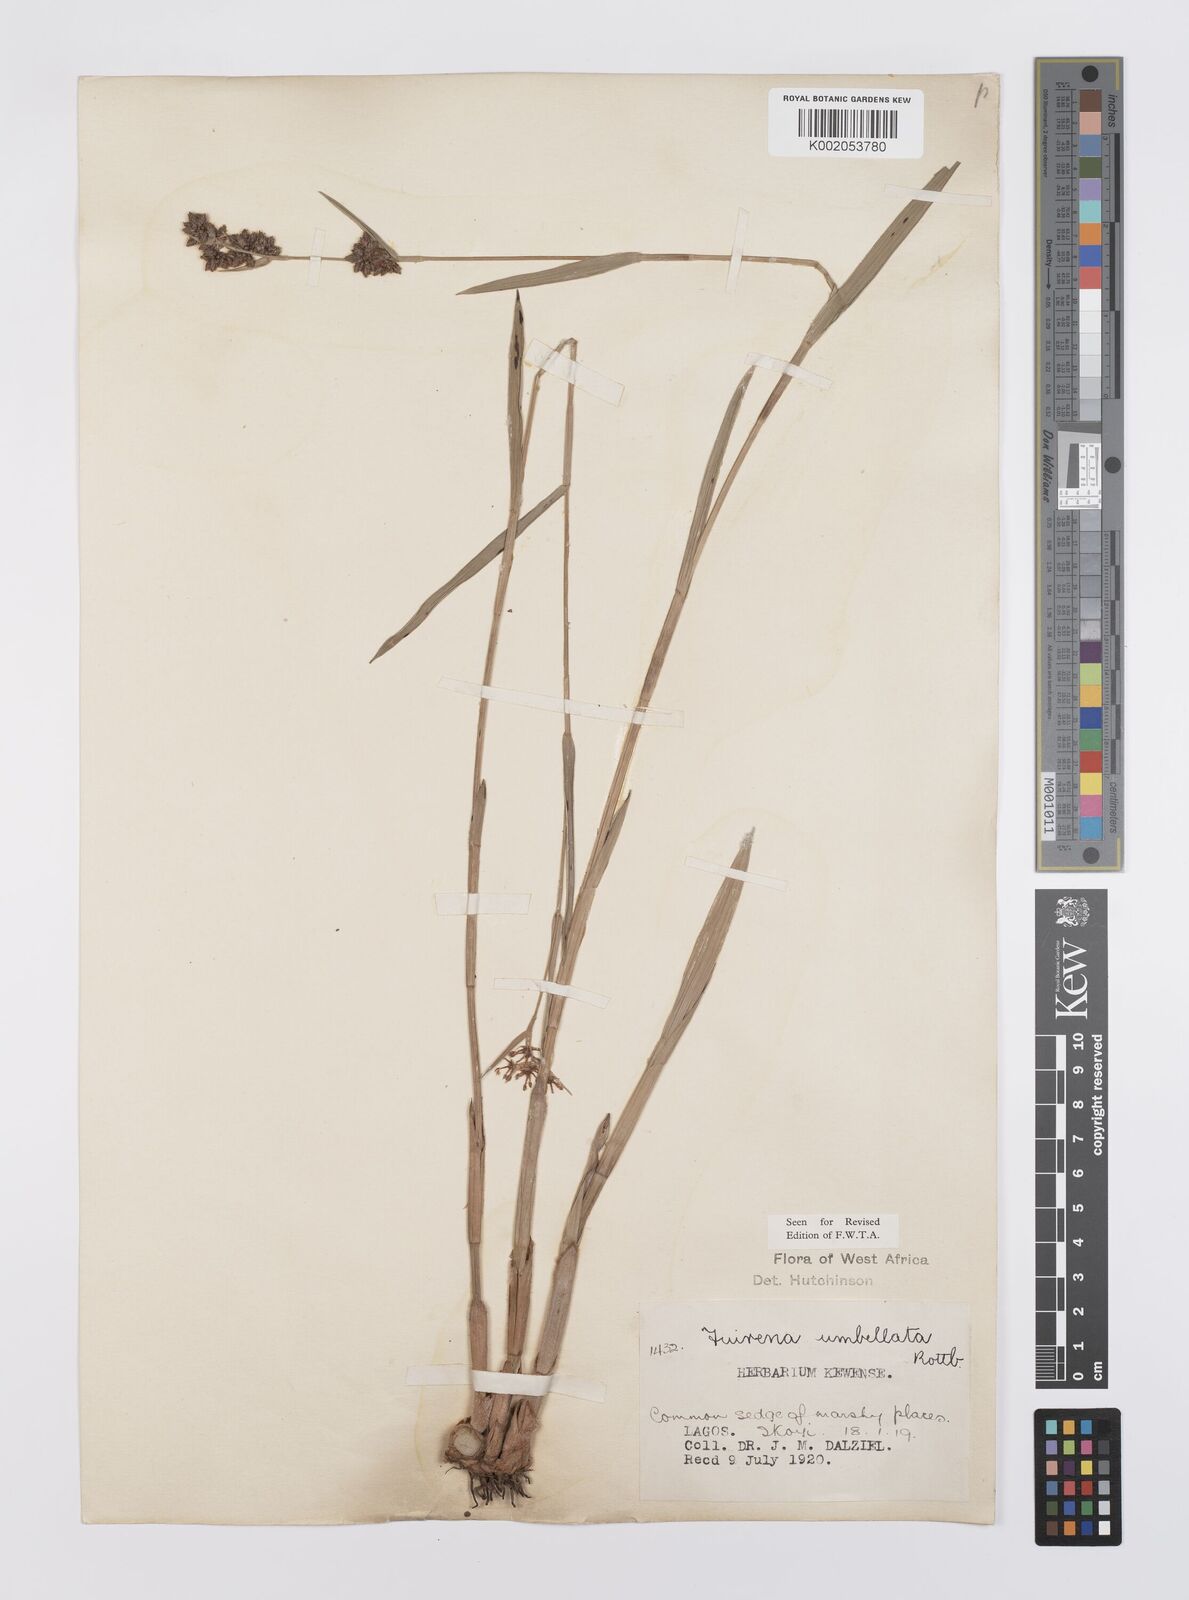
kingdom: Plantae
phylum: Tracheophyta
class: Liliopsida
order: Poales
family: Cyperaceae
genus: Fuirena
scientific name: Fuirena umbellata
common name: Yefen
